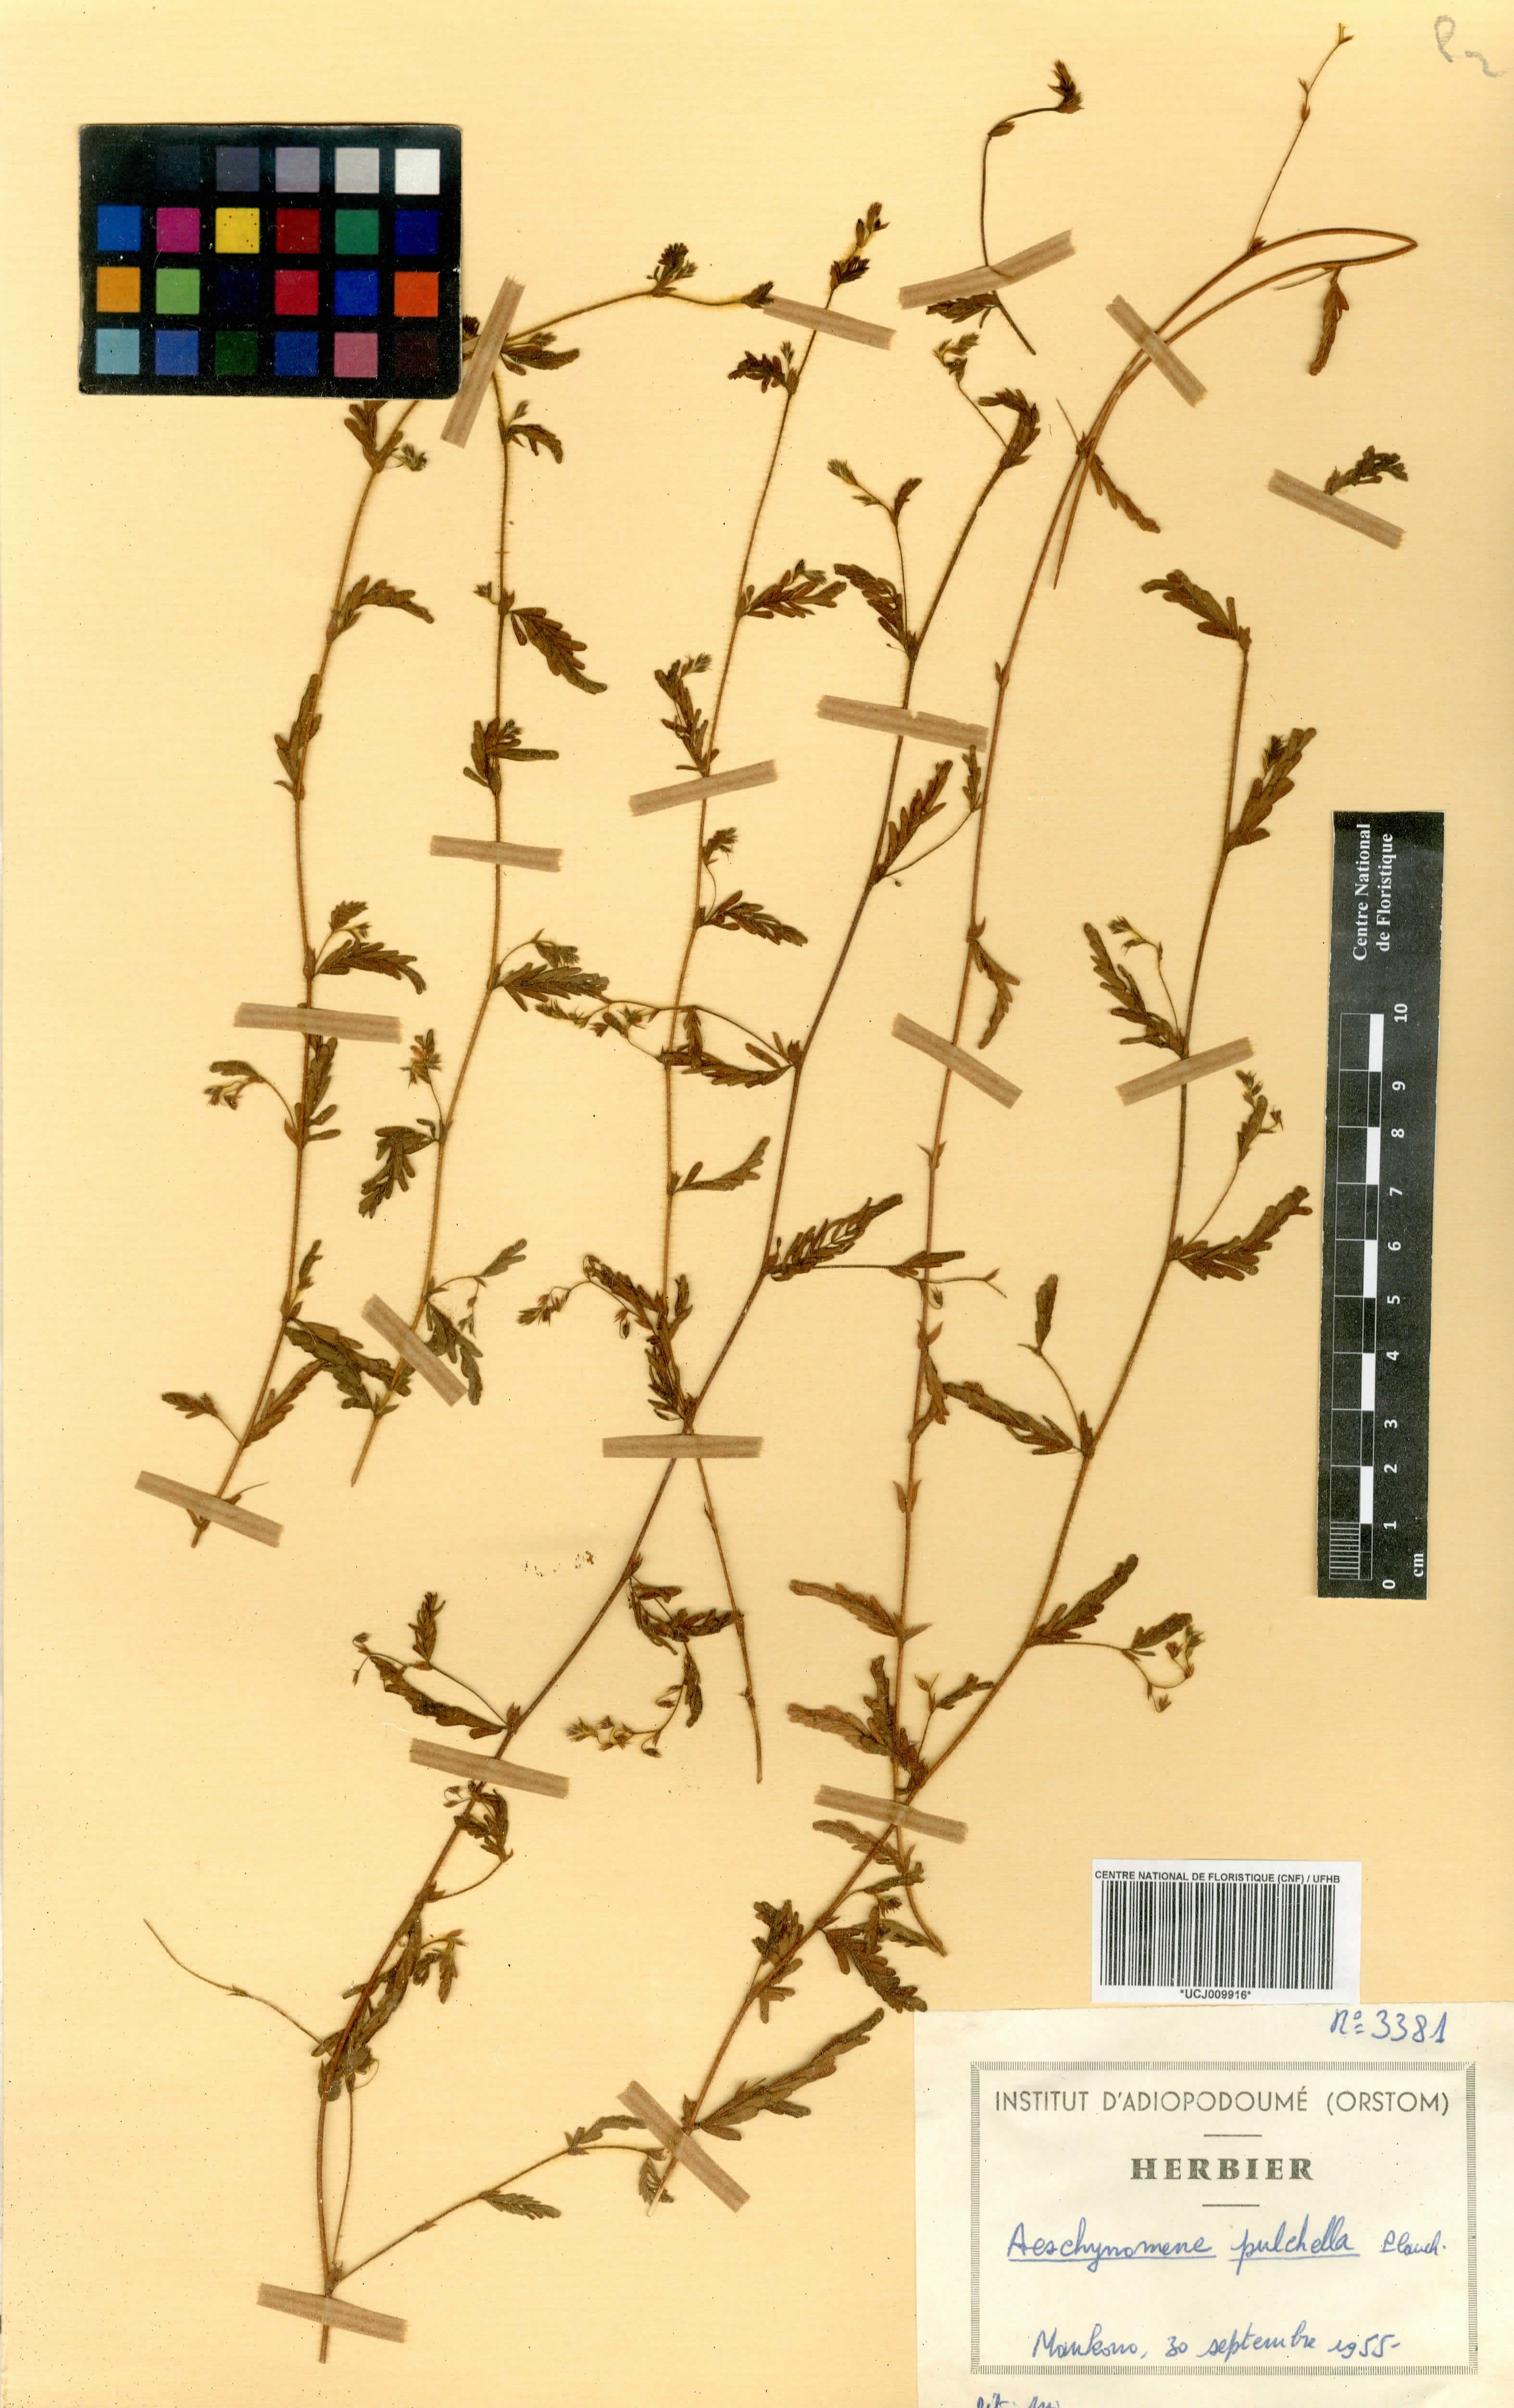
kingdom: Plantae
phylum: Tracheophyta
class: Magnoliopsida
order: Fabales
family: Fabaceae
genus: Aeschynomene
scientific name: Aeschynomene pulchella
